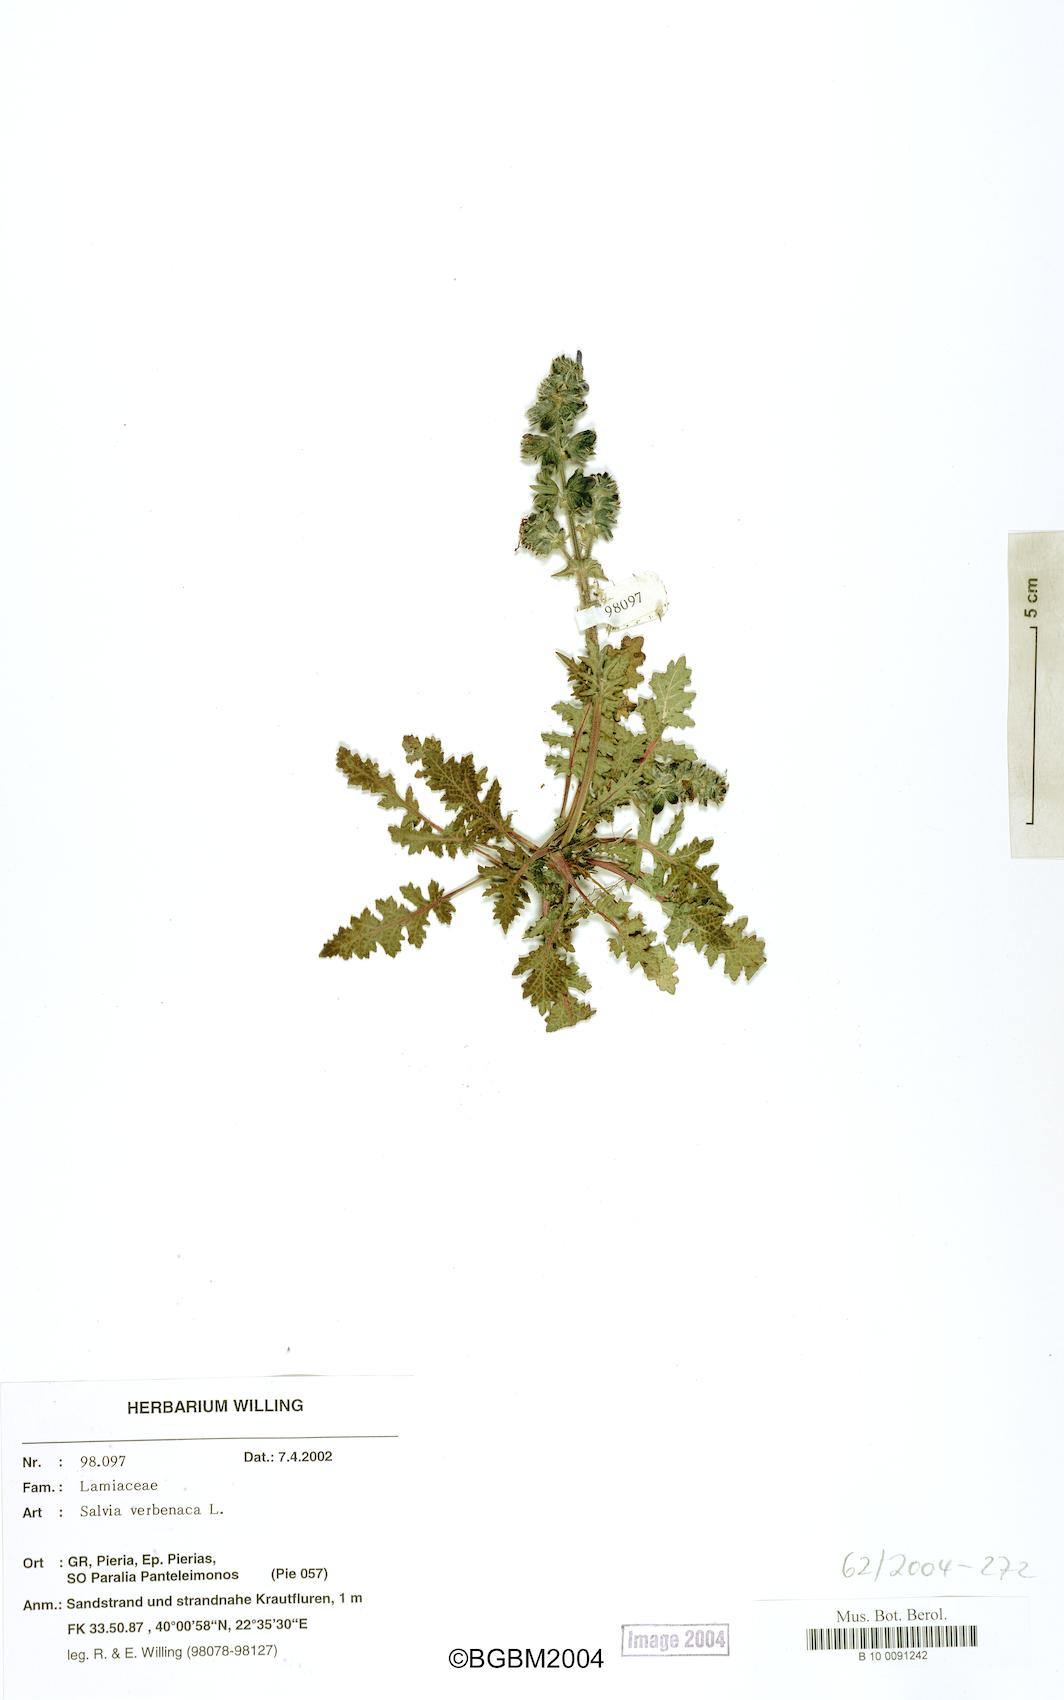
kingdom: Plantae
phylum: Tracheophyta
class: Magnoliopsida
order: Lamiales
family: Lamiaceae
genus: Salvia
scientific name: Salvia verbenaca
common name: Wild clary
